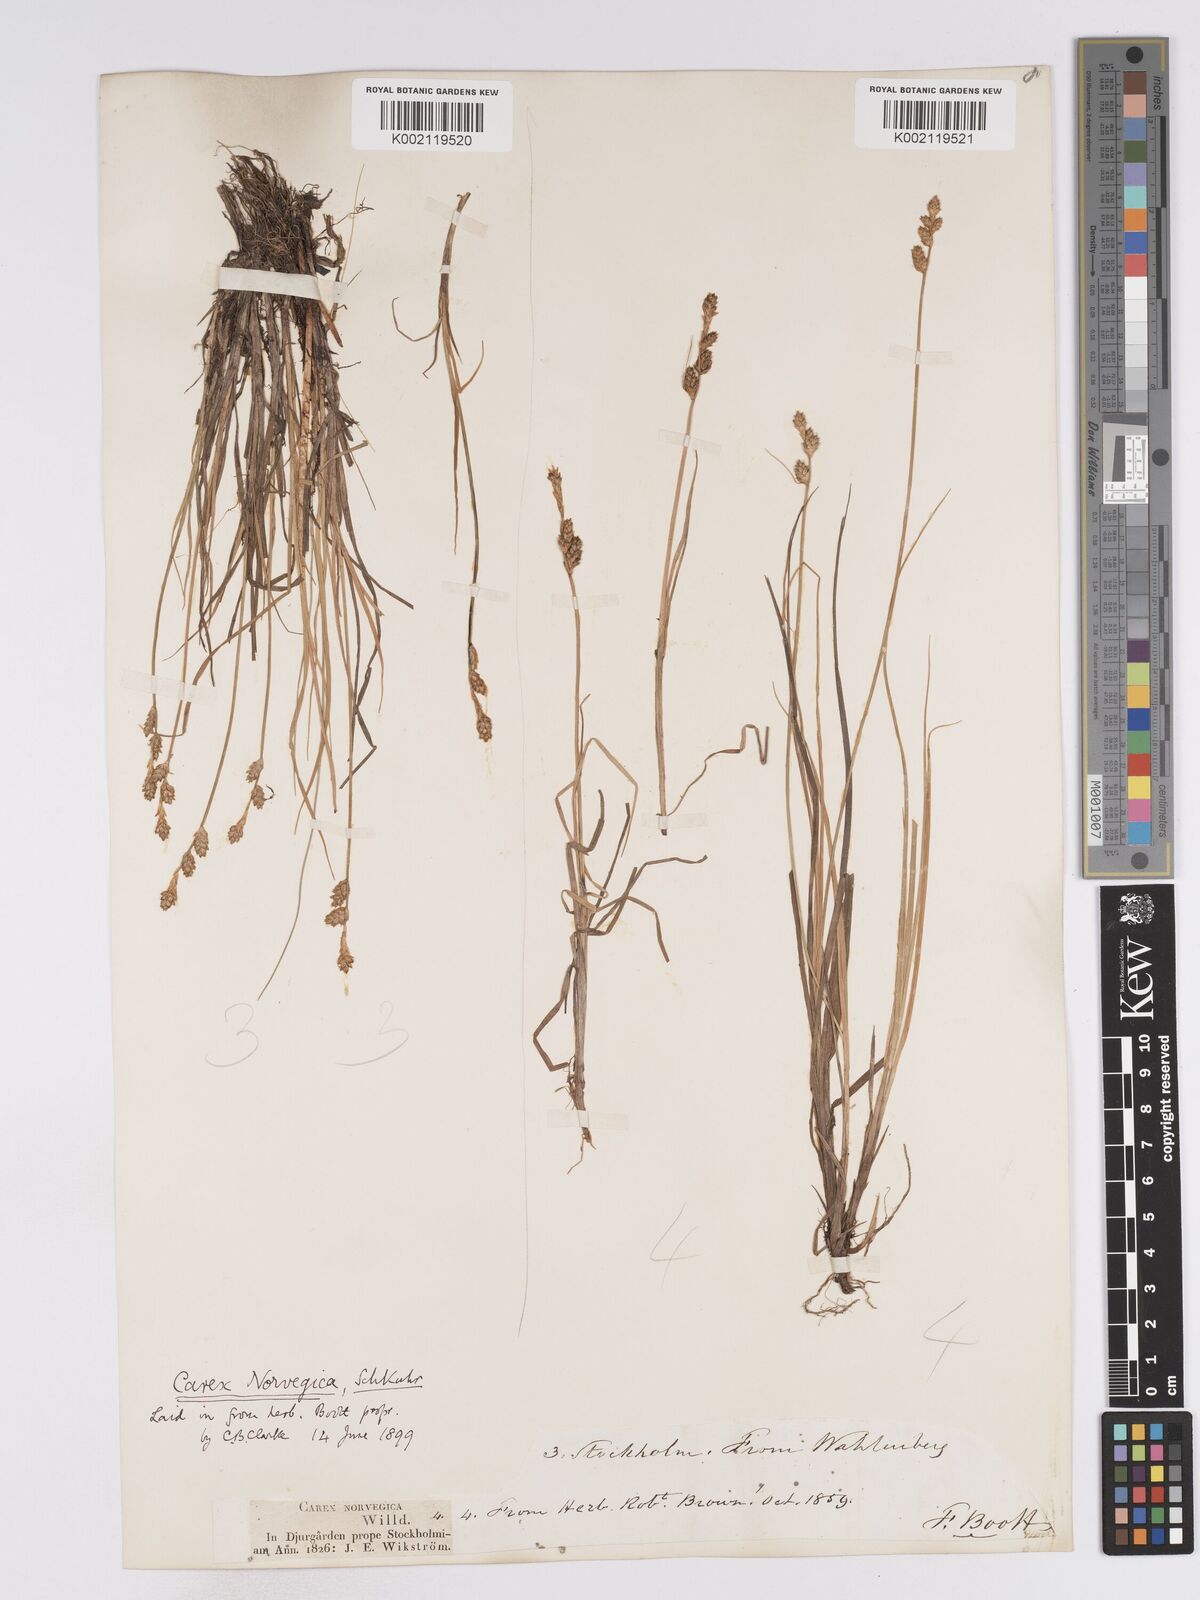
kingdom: Plantae
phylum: Tracheophyta
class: Liliopsida
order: Poales
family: Cyperaceae
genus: Carex
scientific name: Carex mackenziei
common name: Mackenzie's sedge
